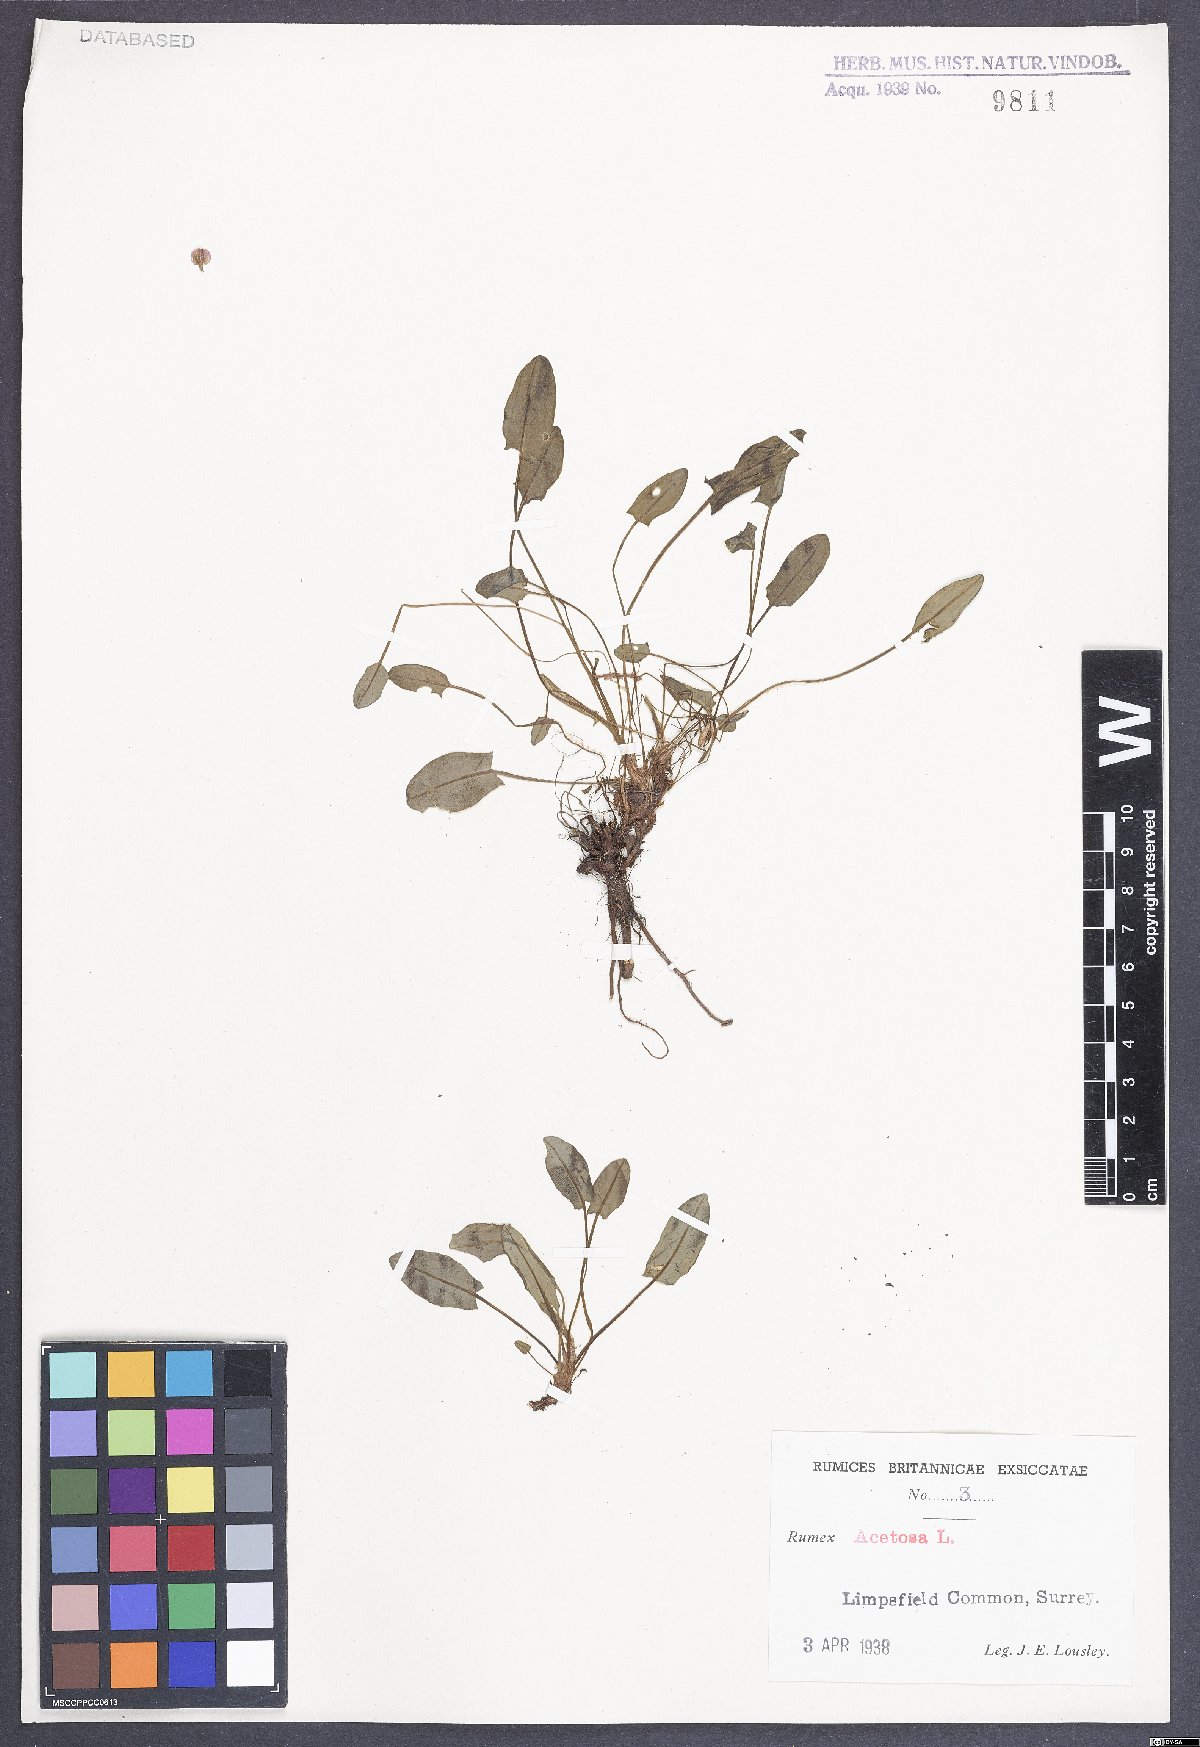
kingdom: Plantae
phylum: Tracheophyta
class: Magnoliopsida
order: Caryophyllales
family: Polygonaceae
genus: Rumex
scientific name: Rumex acetosa
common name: Garden sorrel
